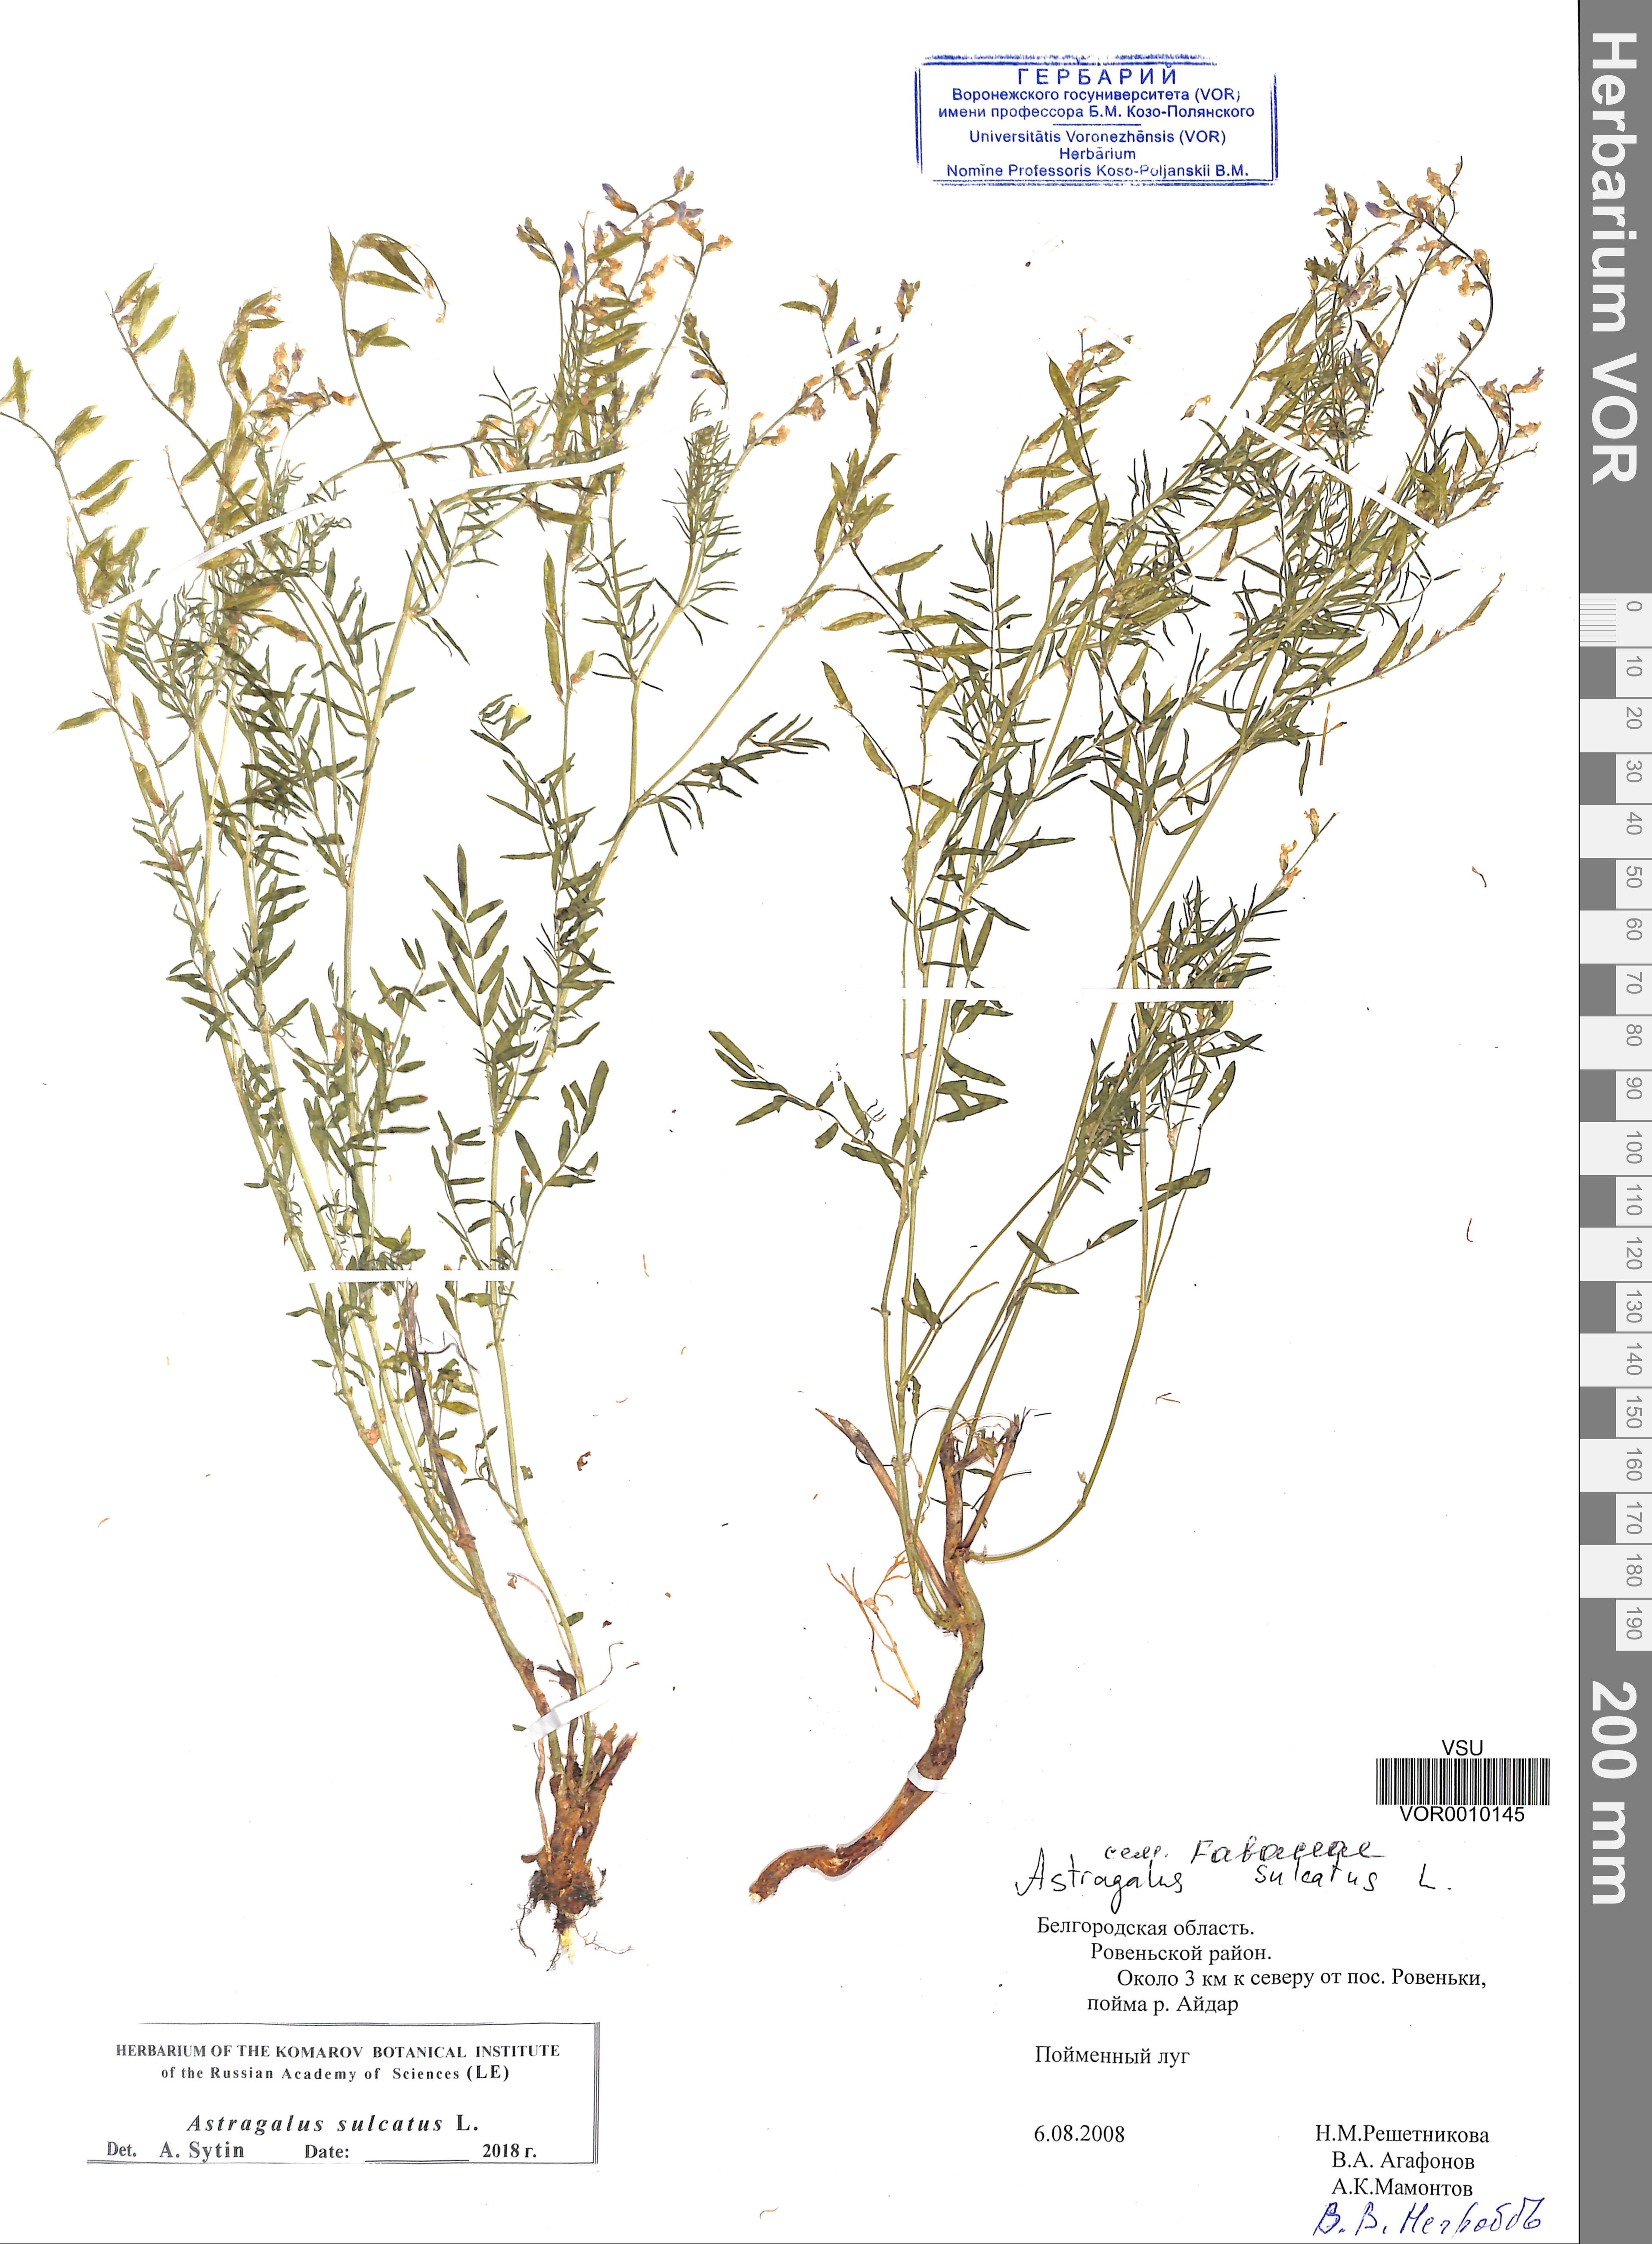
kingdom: Plantae
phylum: Tracheophyta
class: Magnoliopsida
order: Fabales
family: Fabaceae
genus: Astragalus
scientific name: Astragalus sulcatus
